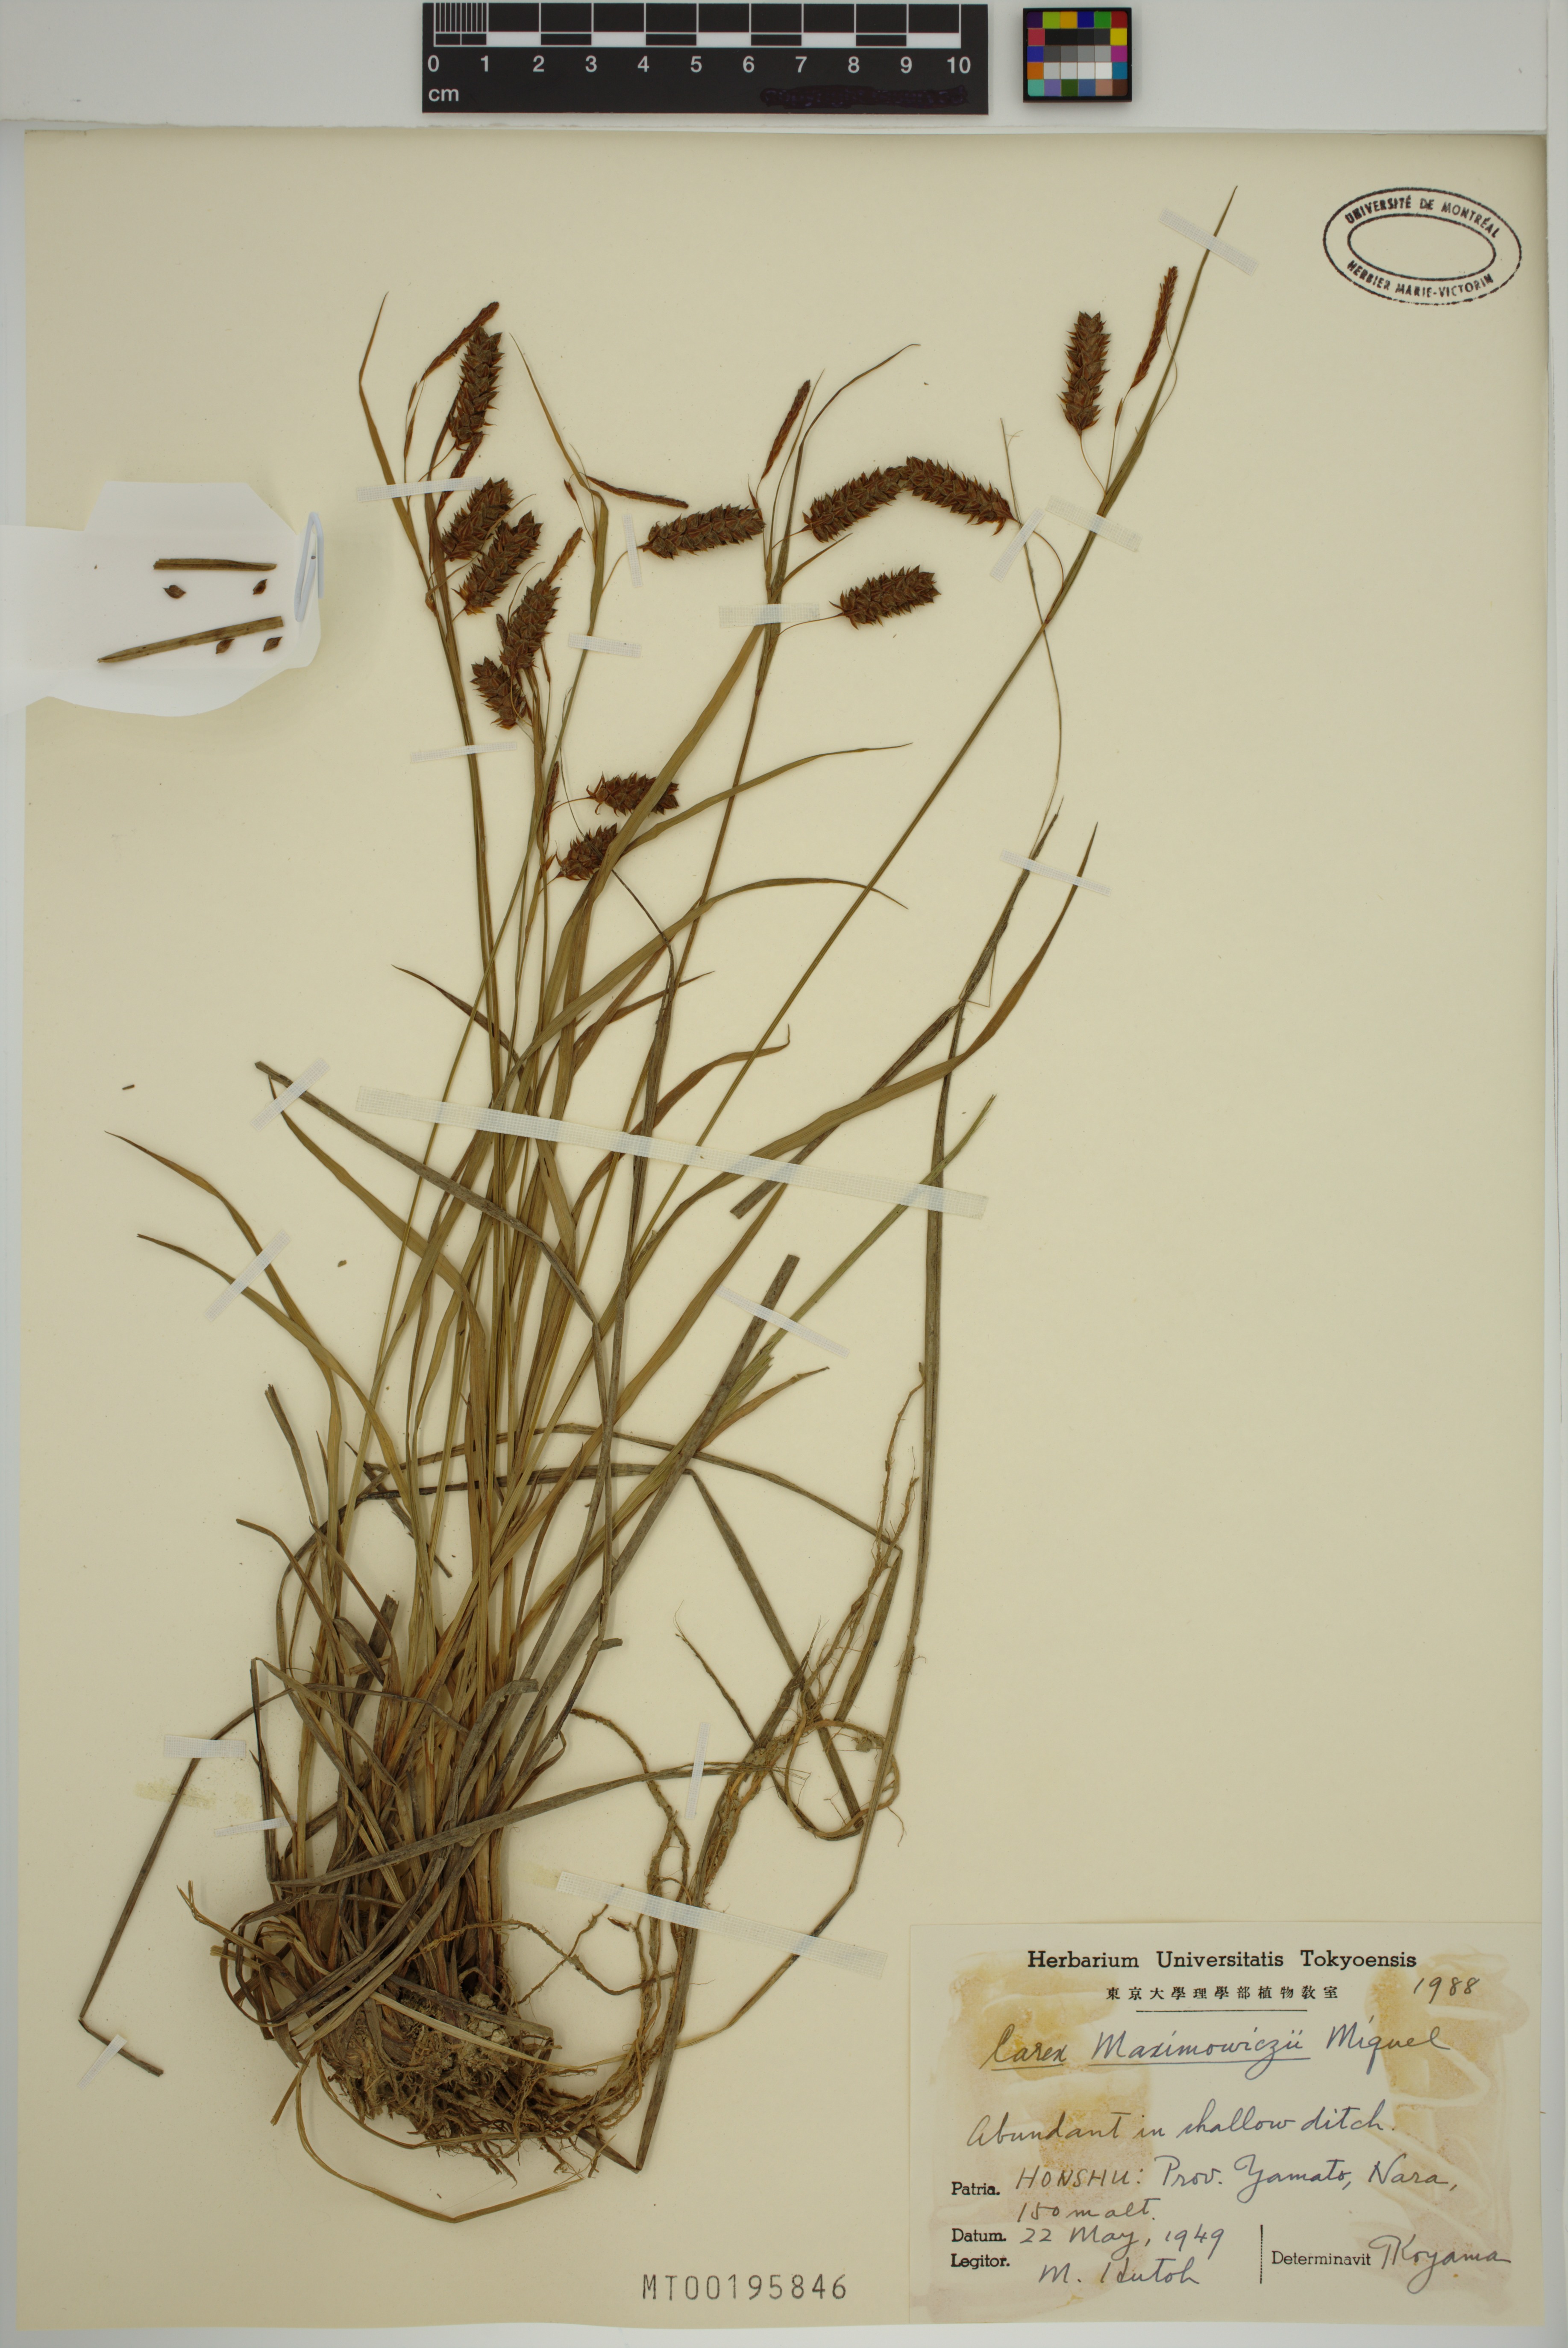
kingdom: Plantae
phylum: Tracheophyta
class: Liliopsida
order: Poales
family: Cyperaceae
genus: Carex
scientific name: Carex maximowiczii
